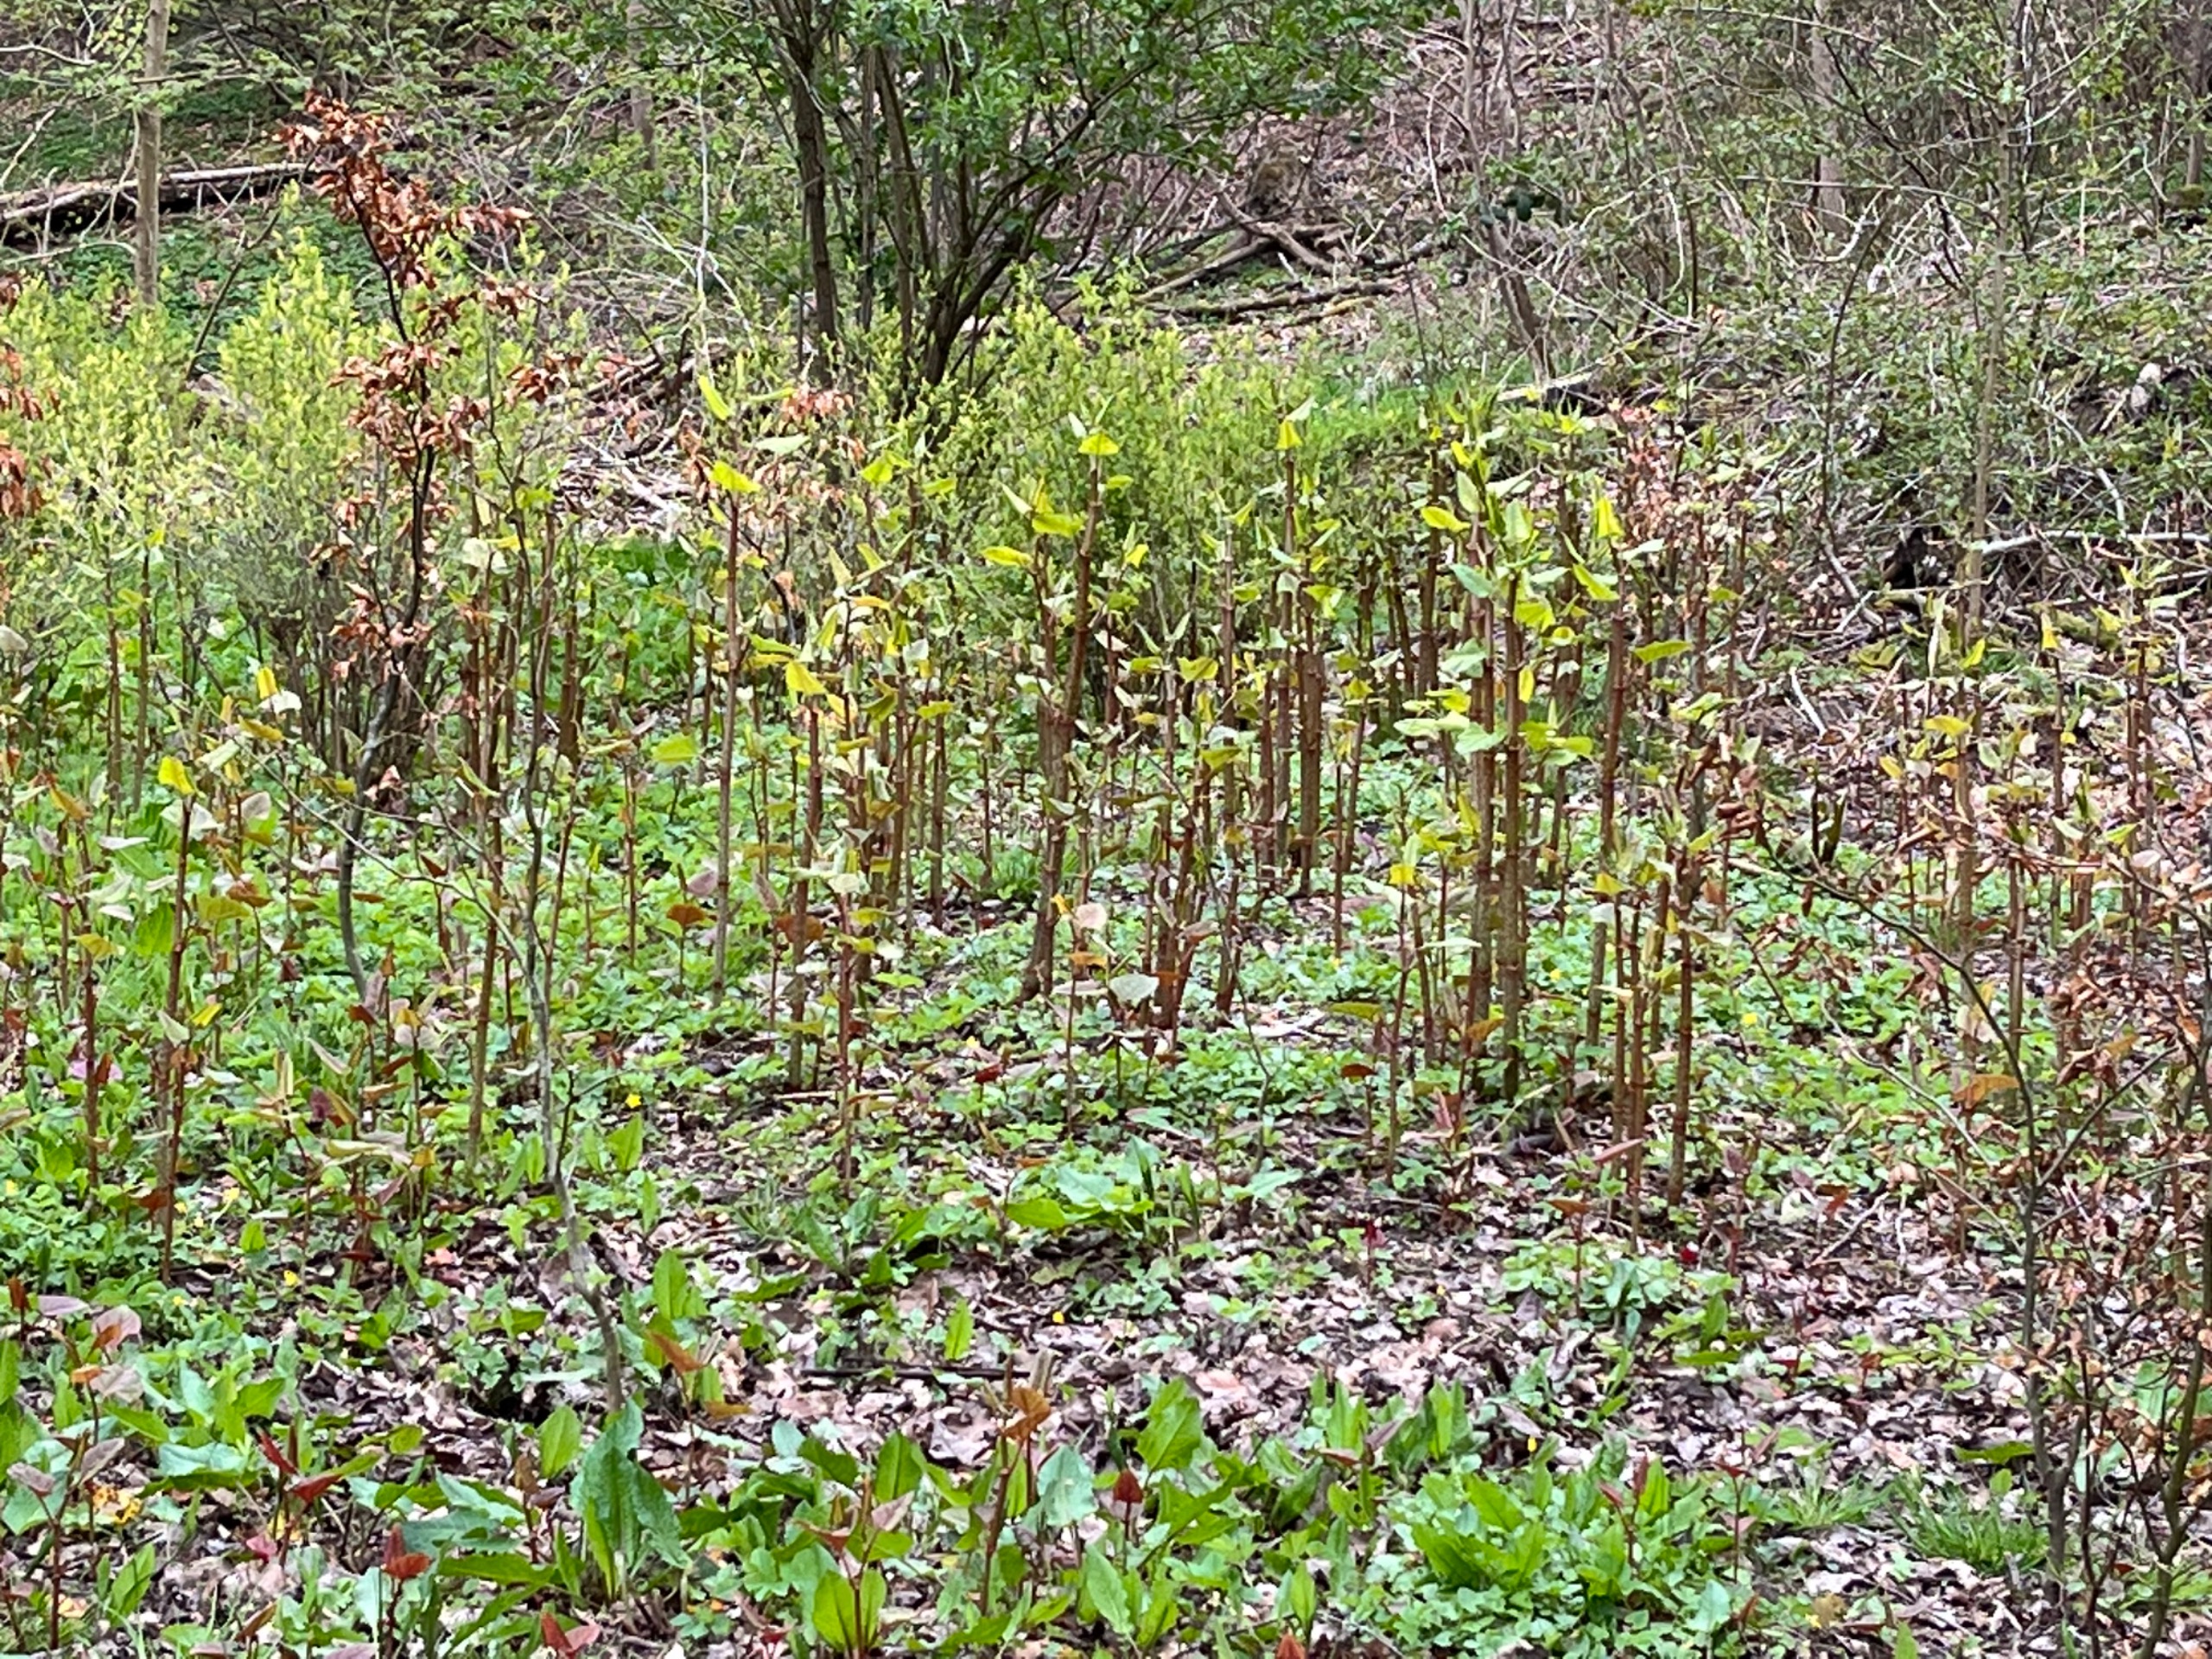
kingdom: Plantae
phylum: Tracheophyta
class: Magnoliopsida
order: Caryophyllales
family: Polygonaceae
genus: Reynoutria
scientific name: Reynoutria
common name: Pileurt (Reynoutria-slægten)
